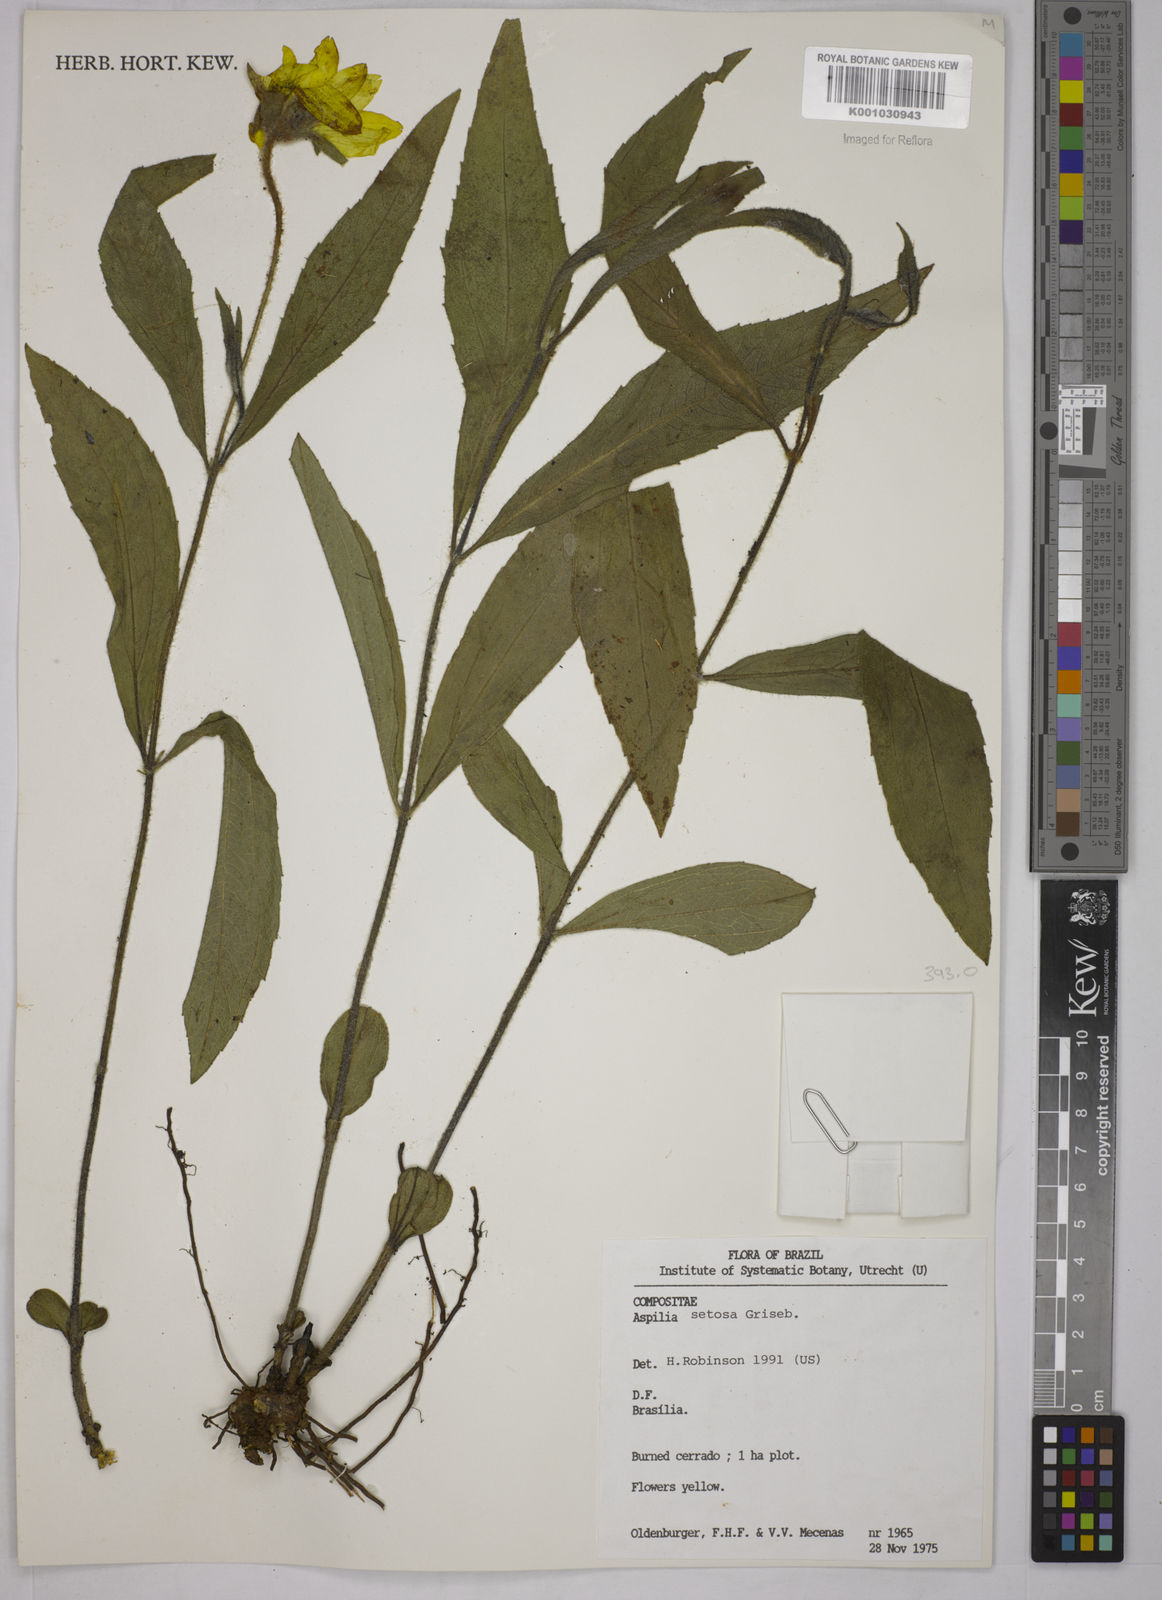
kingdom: Plantae
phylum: Tracheophyta
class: Magnoliopsida
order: Asterales
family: Asteraceae
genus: Aspilia
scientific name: Aspilia
